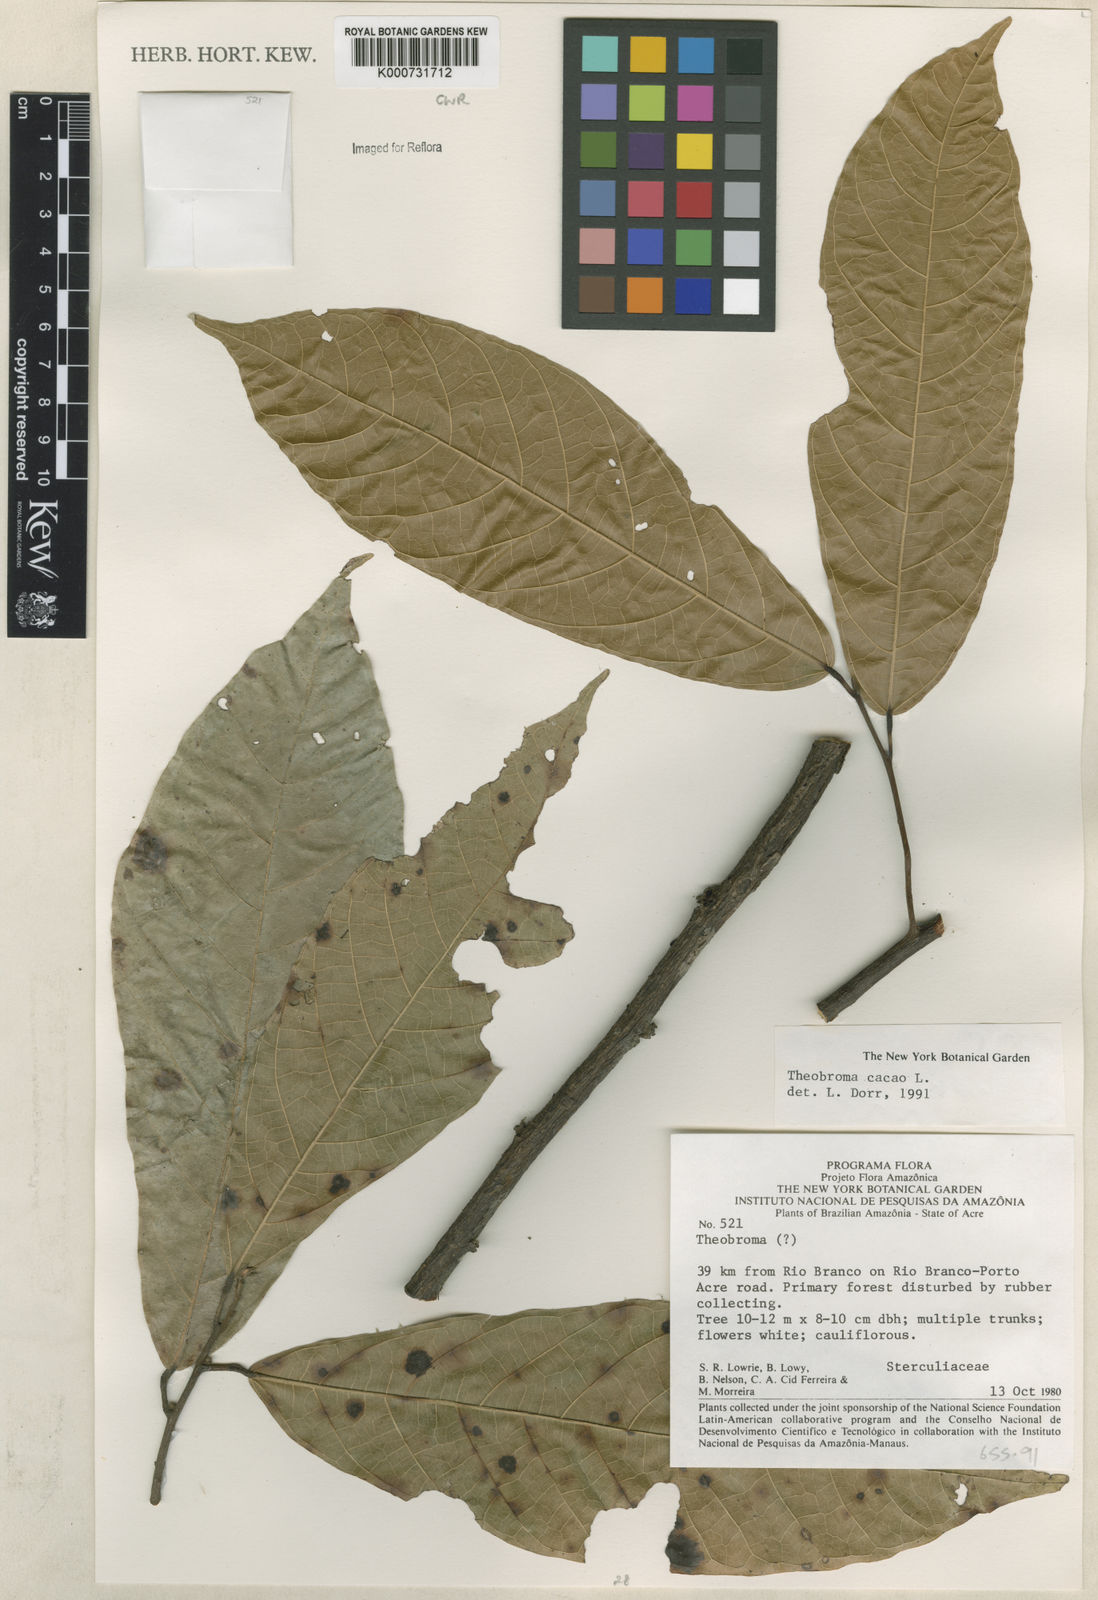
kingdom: Plantae
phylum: Tracheophyta
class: Magnoliopsida
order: Malvales
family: Malvaceae
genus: Theobroma
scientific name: Theobroma cacao
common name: Cocoa
